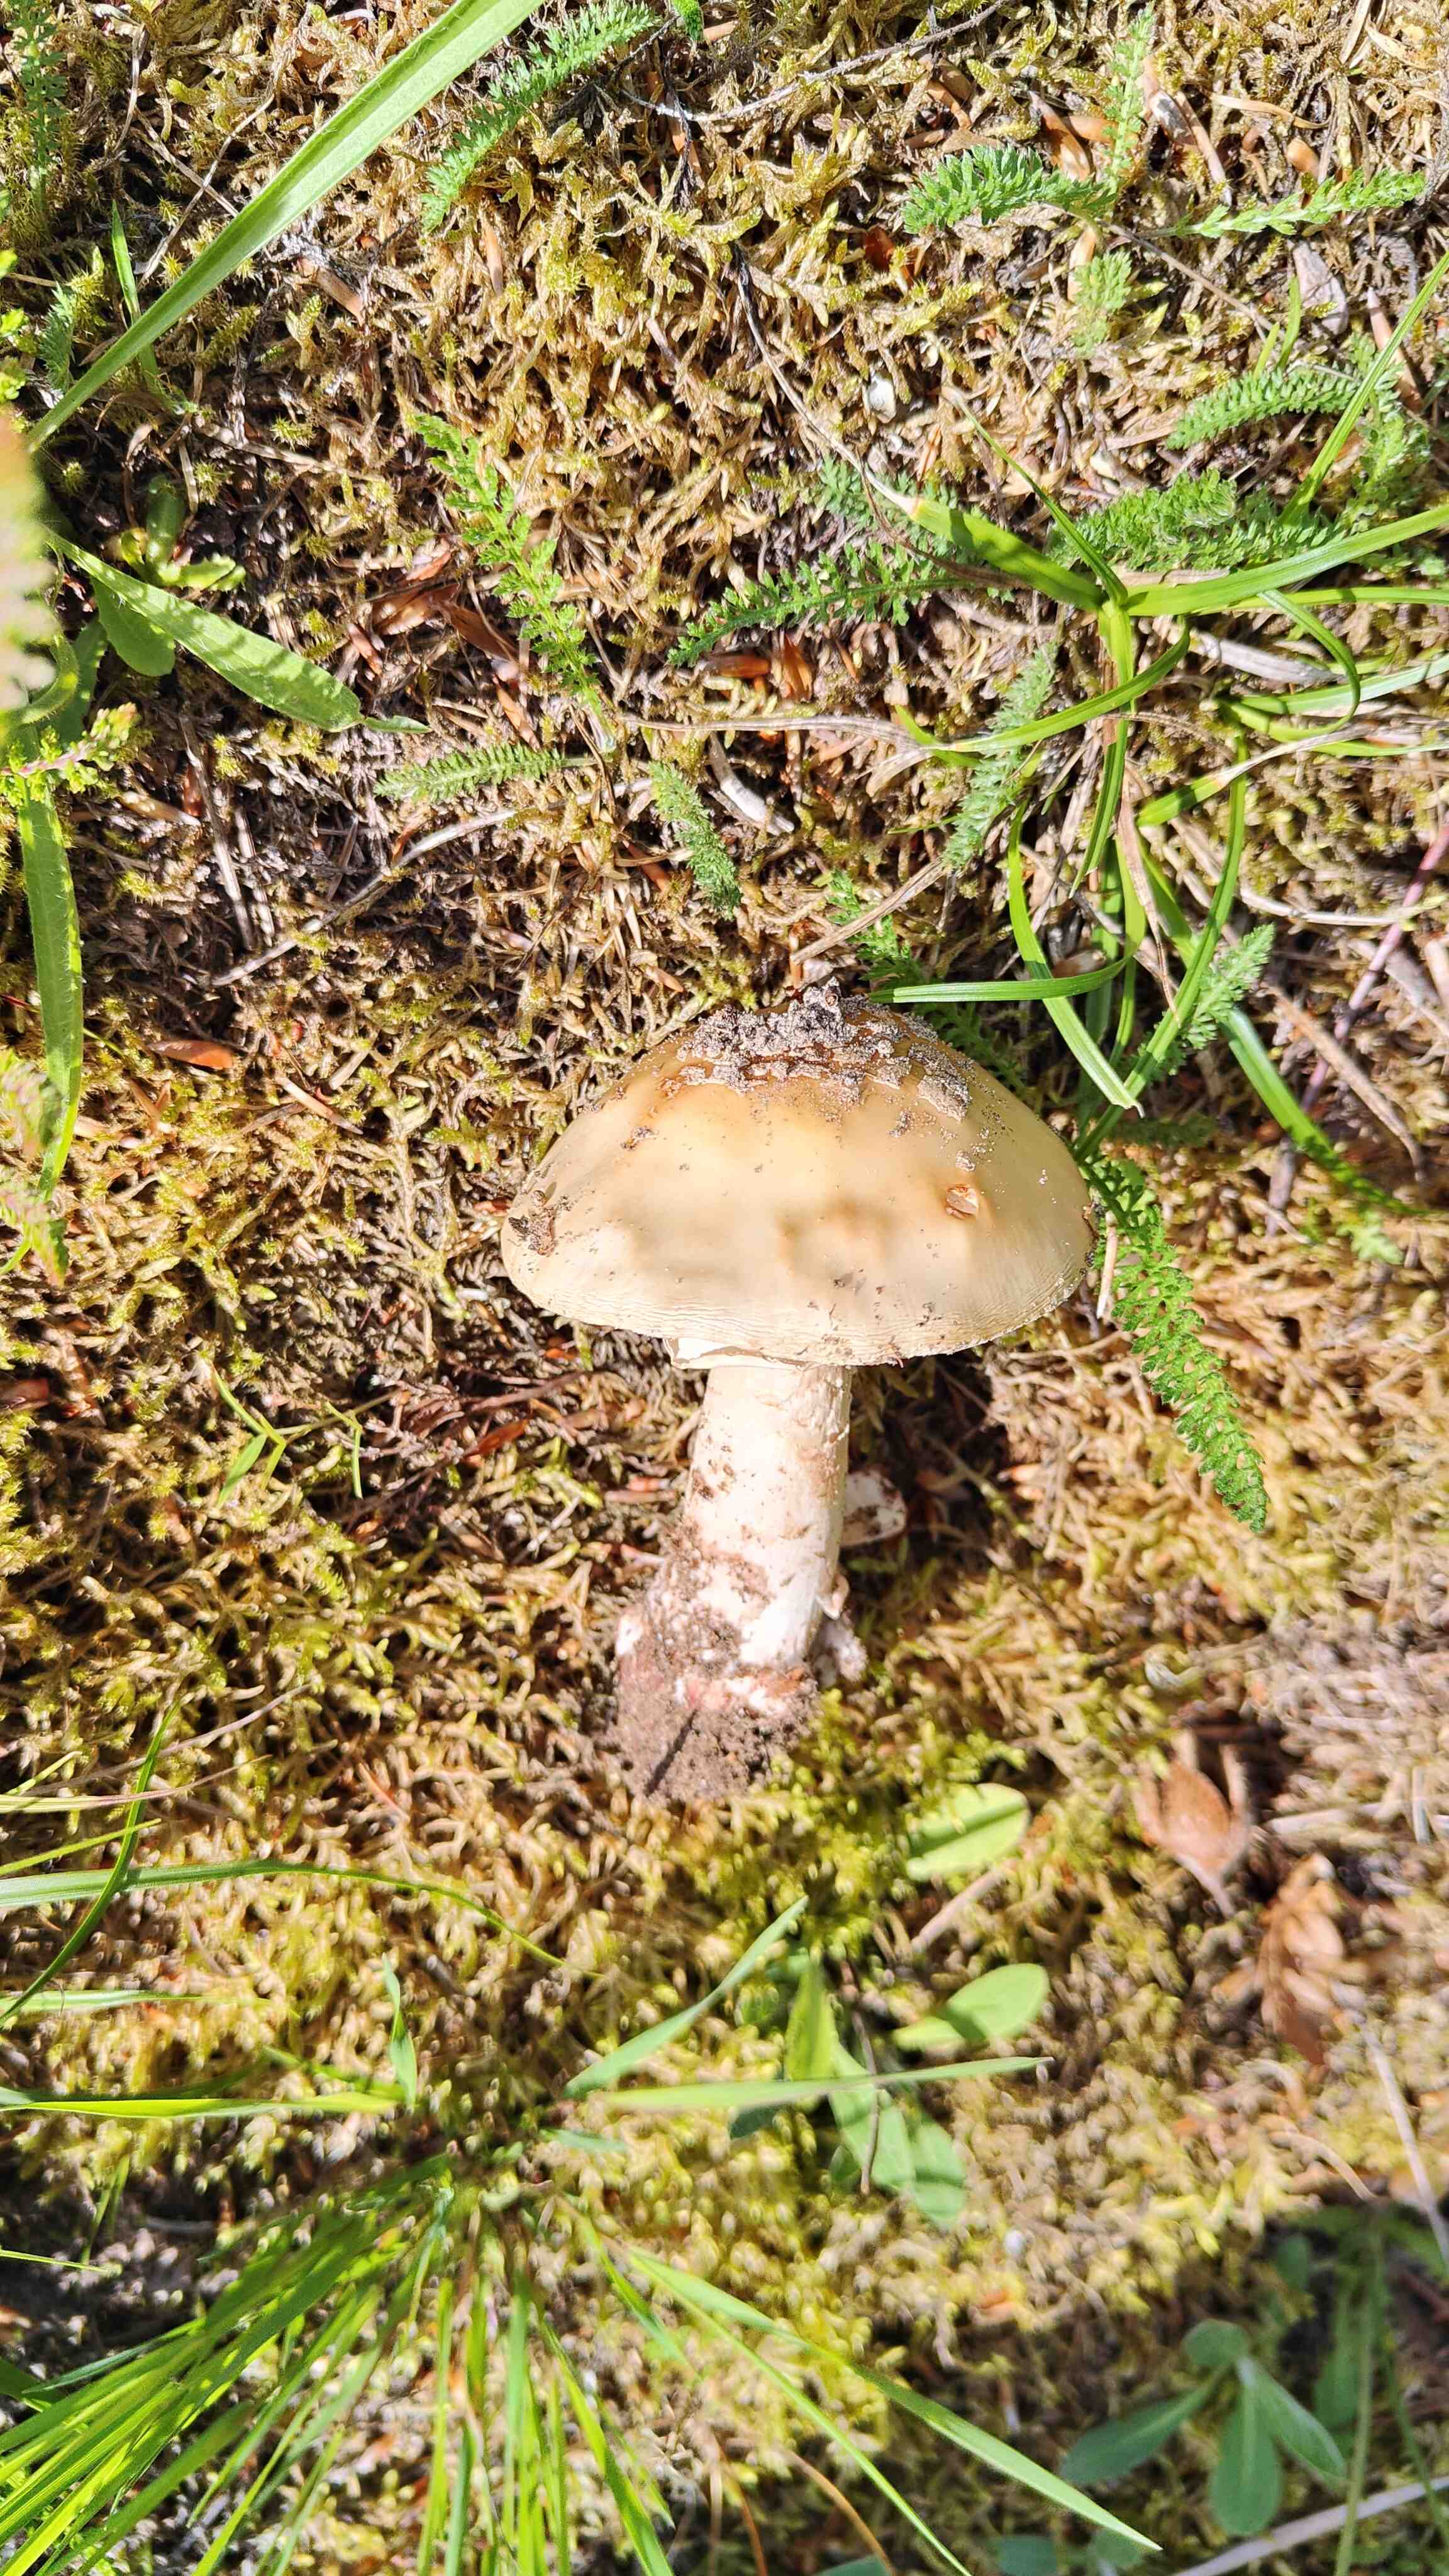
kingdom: Fungi
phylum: Basidiomycota
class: Agaricomycetes
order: Agaricales
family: Amanitaceae
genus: Amanita
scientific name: Amanita rubescens
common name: rødmende fluesvamp
